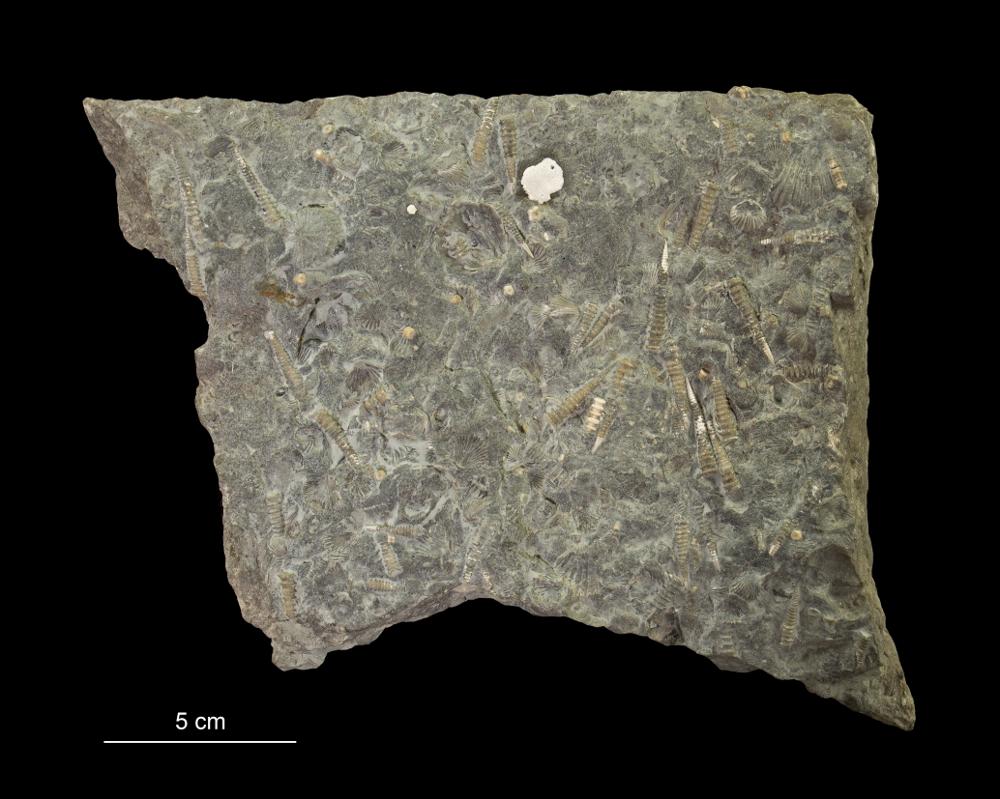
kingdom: Animalia
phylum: Mollusca
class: Cricoconarida
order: Tentaculitida
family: Tentaculitidae
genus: Tentaculites
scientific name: Tentaculites
